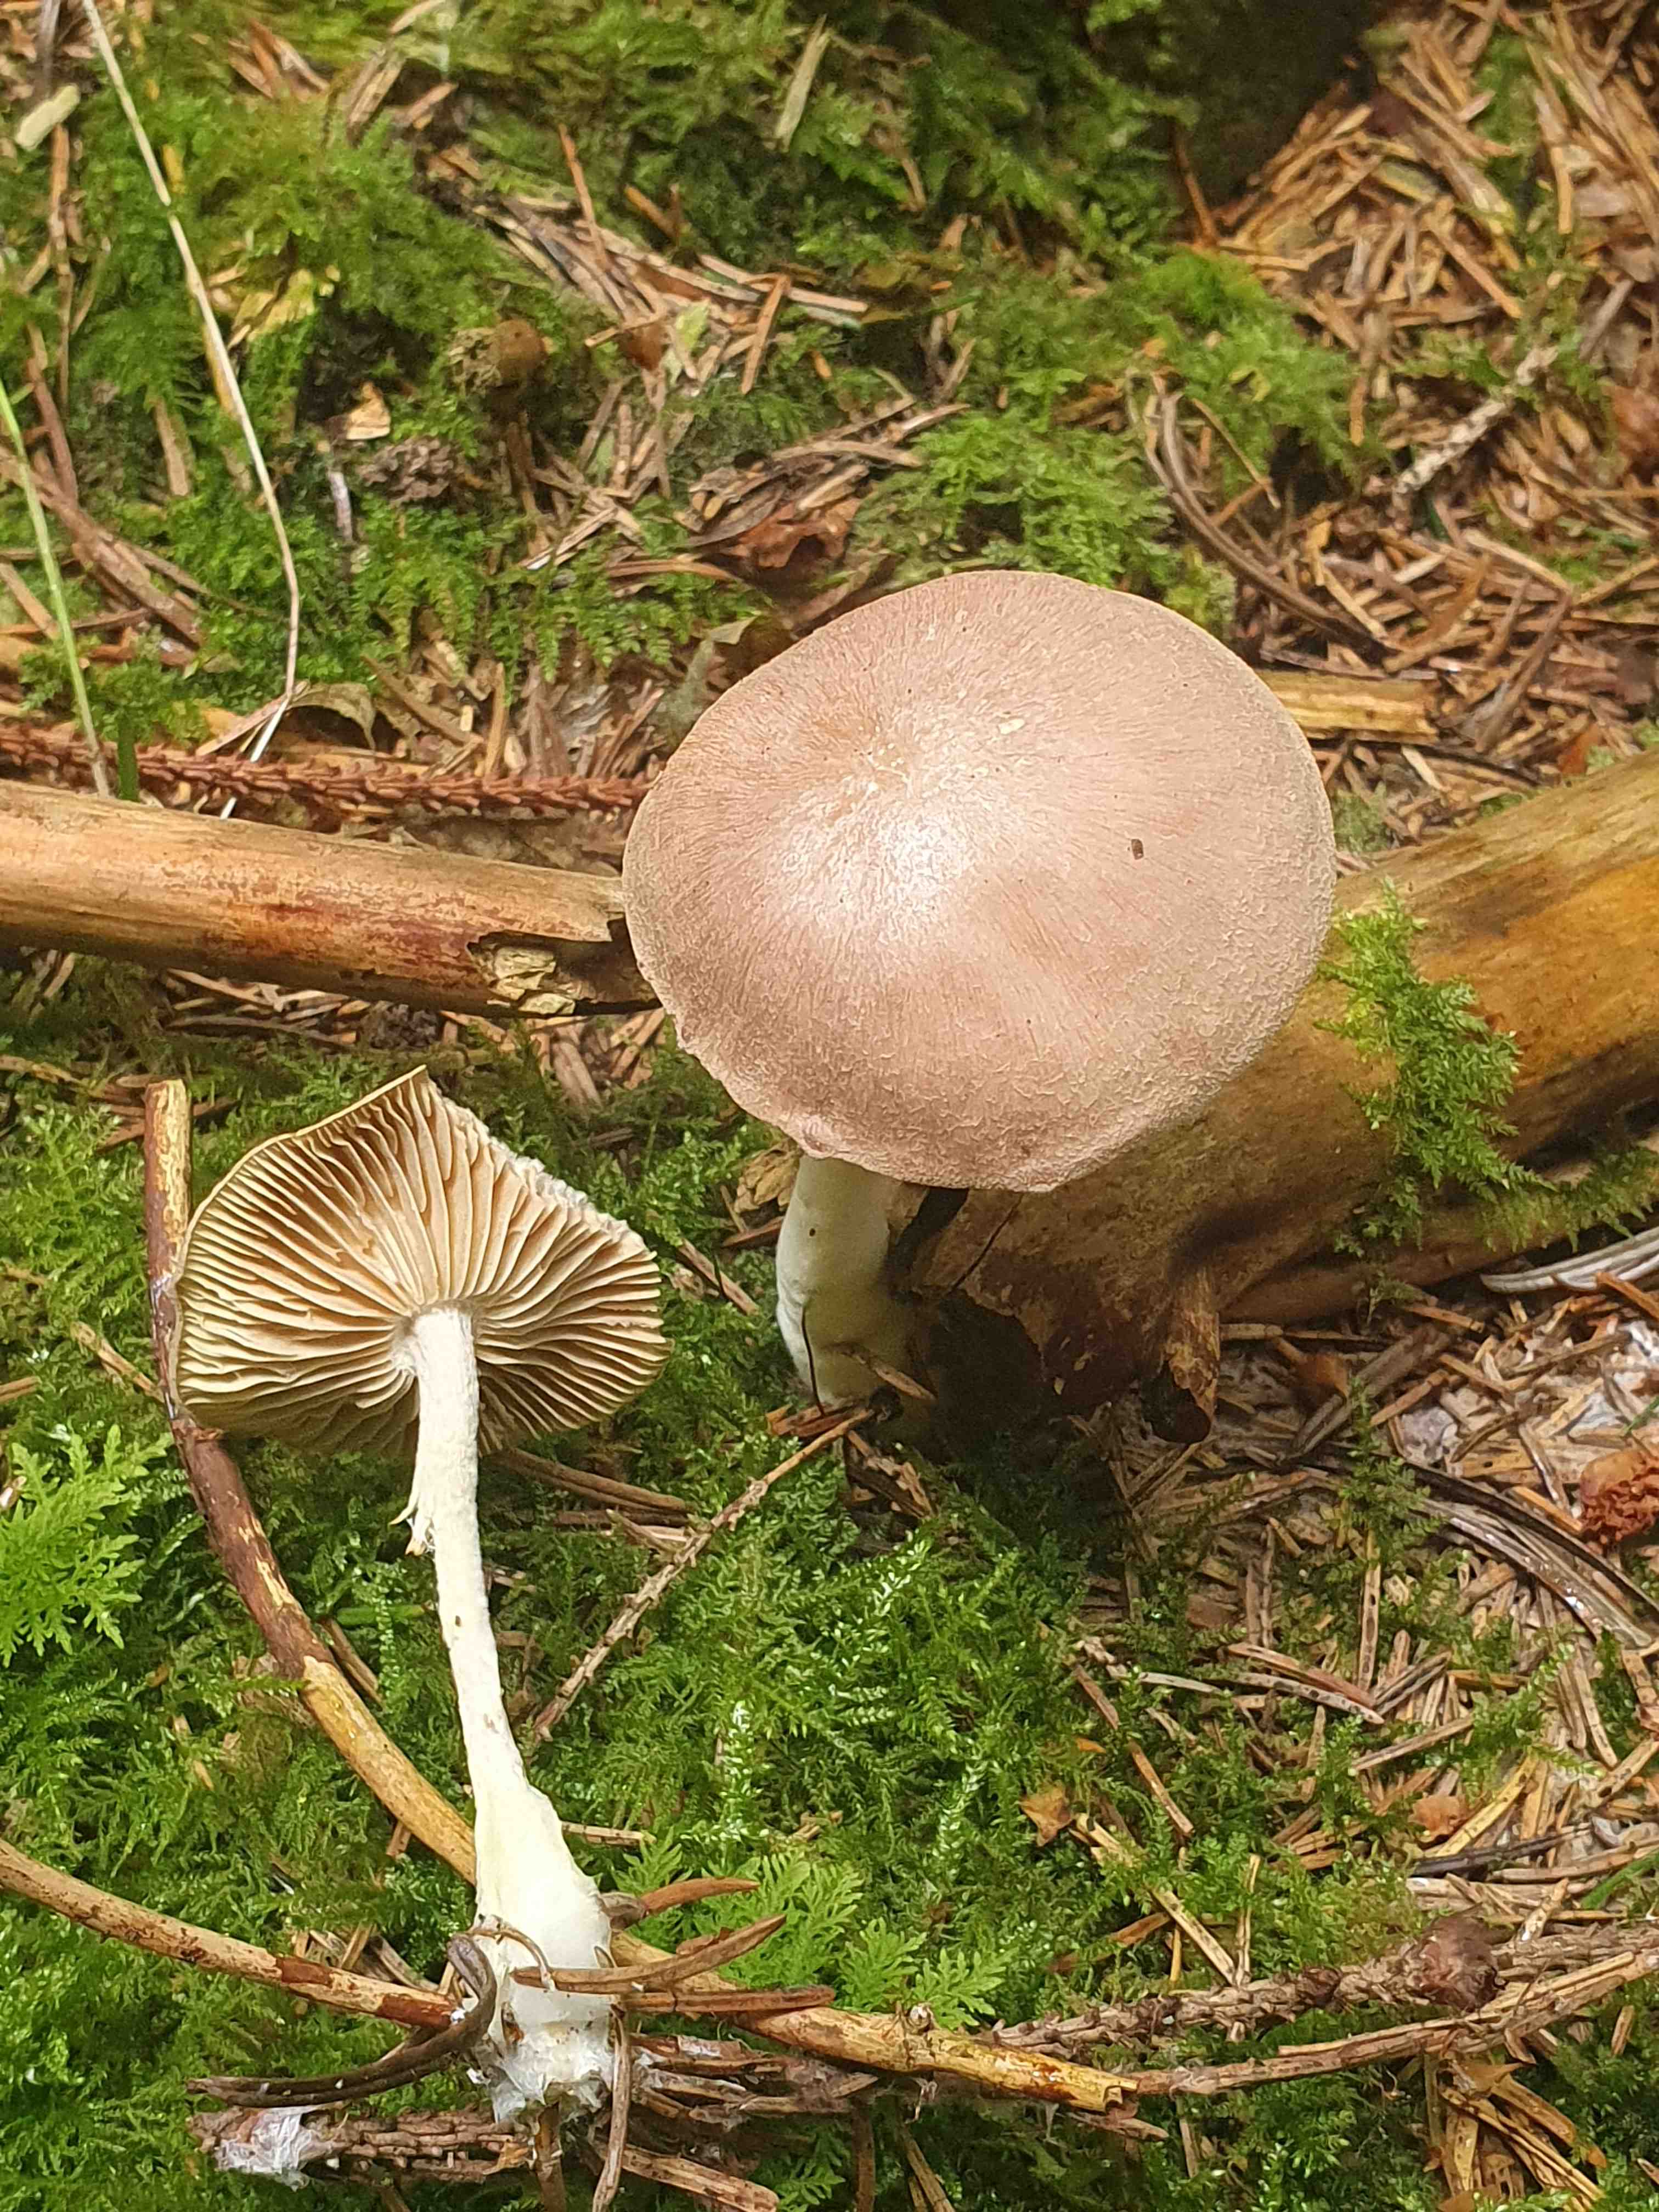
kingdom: Fungi
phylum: Basidiomycota
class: Agaricomycetes
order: Agaricales
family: Omphalotaceae
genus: Collybiopsis
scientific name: Collybiopsis peronata
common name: bestøvlet fladhat
